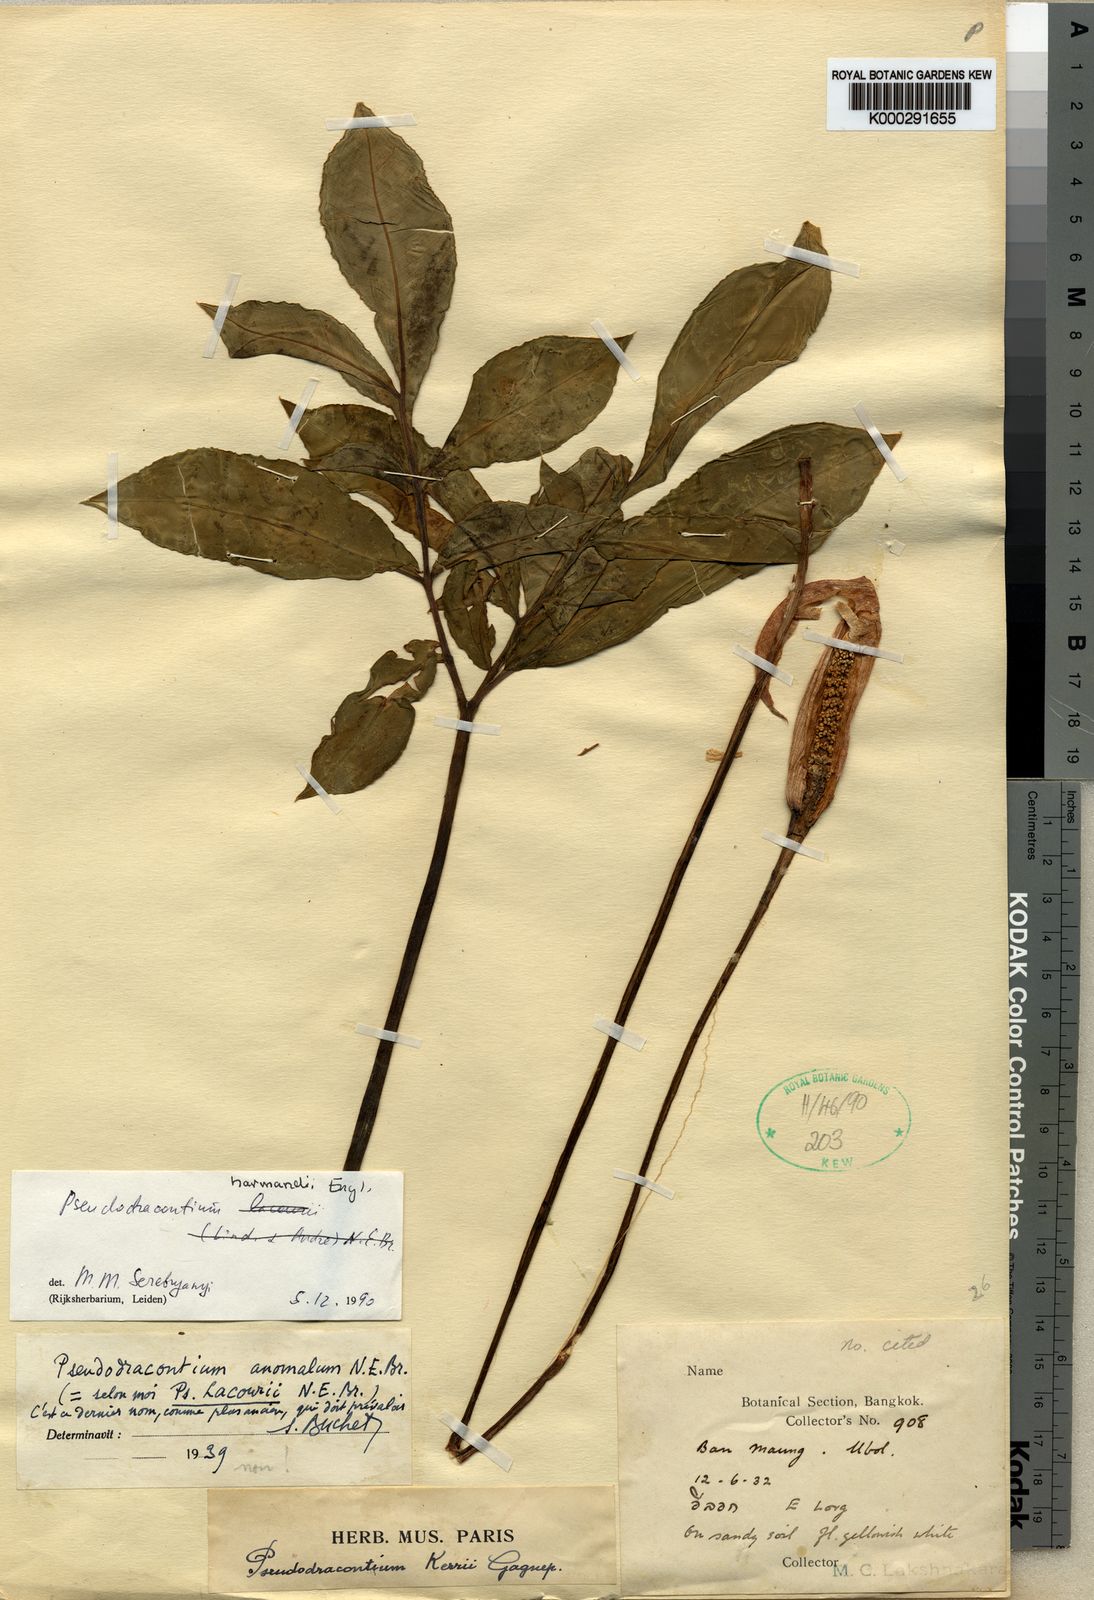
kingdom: Plantae
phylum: Tracheophyta
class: Liliopsida
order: Alismatales
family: Araceae
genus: Amorphophallus
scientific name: Amorphophallus harmandii
